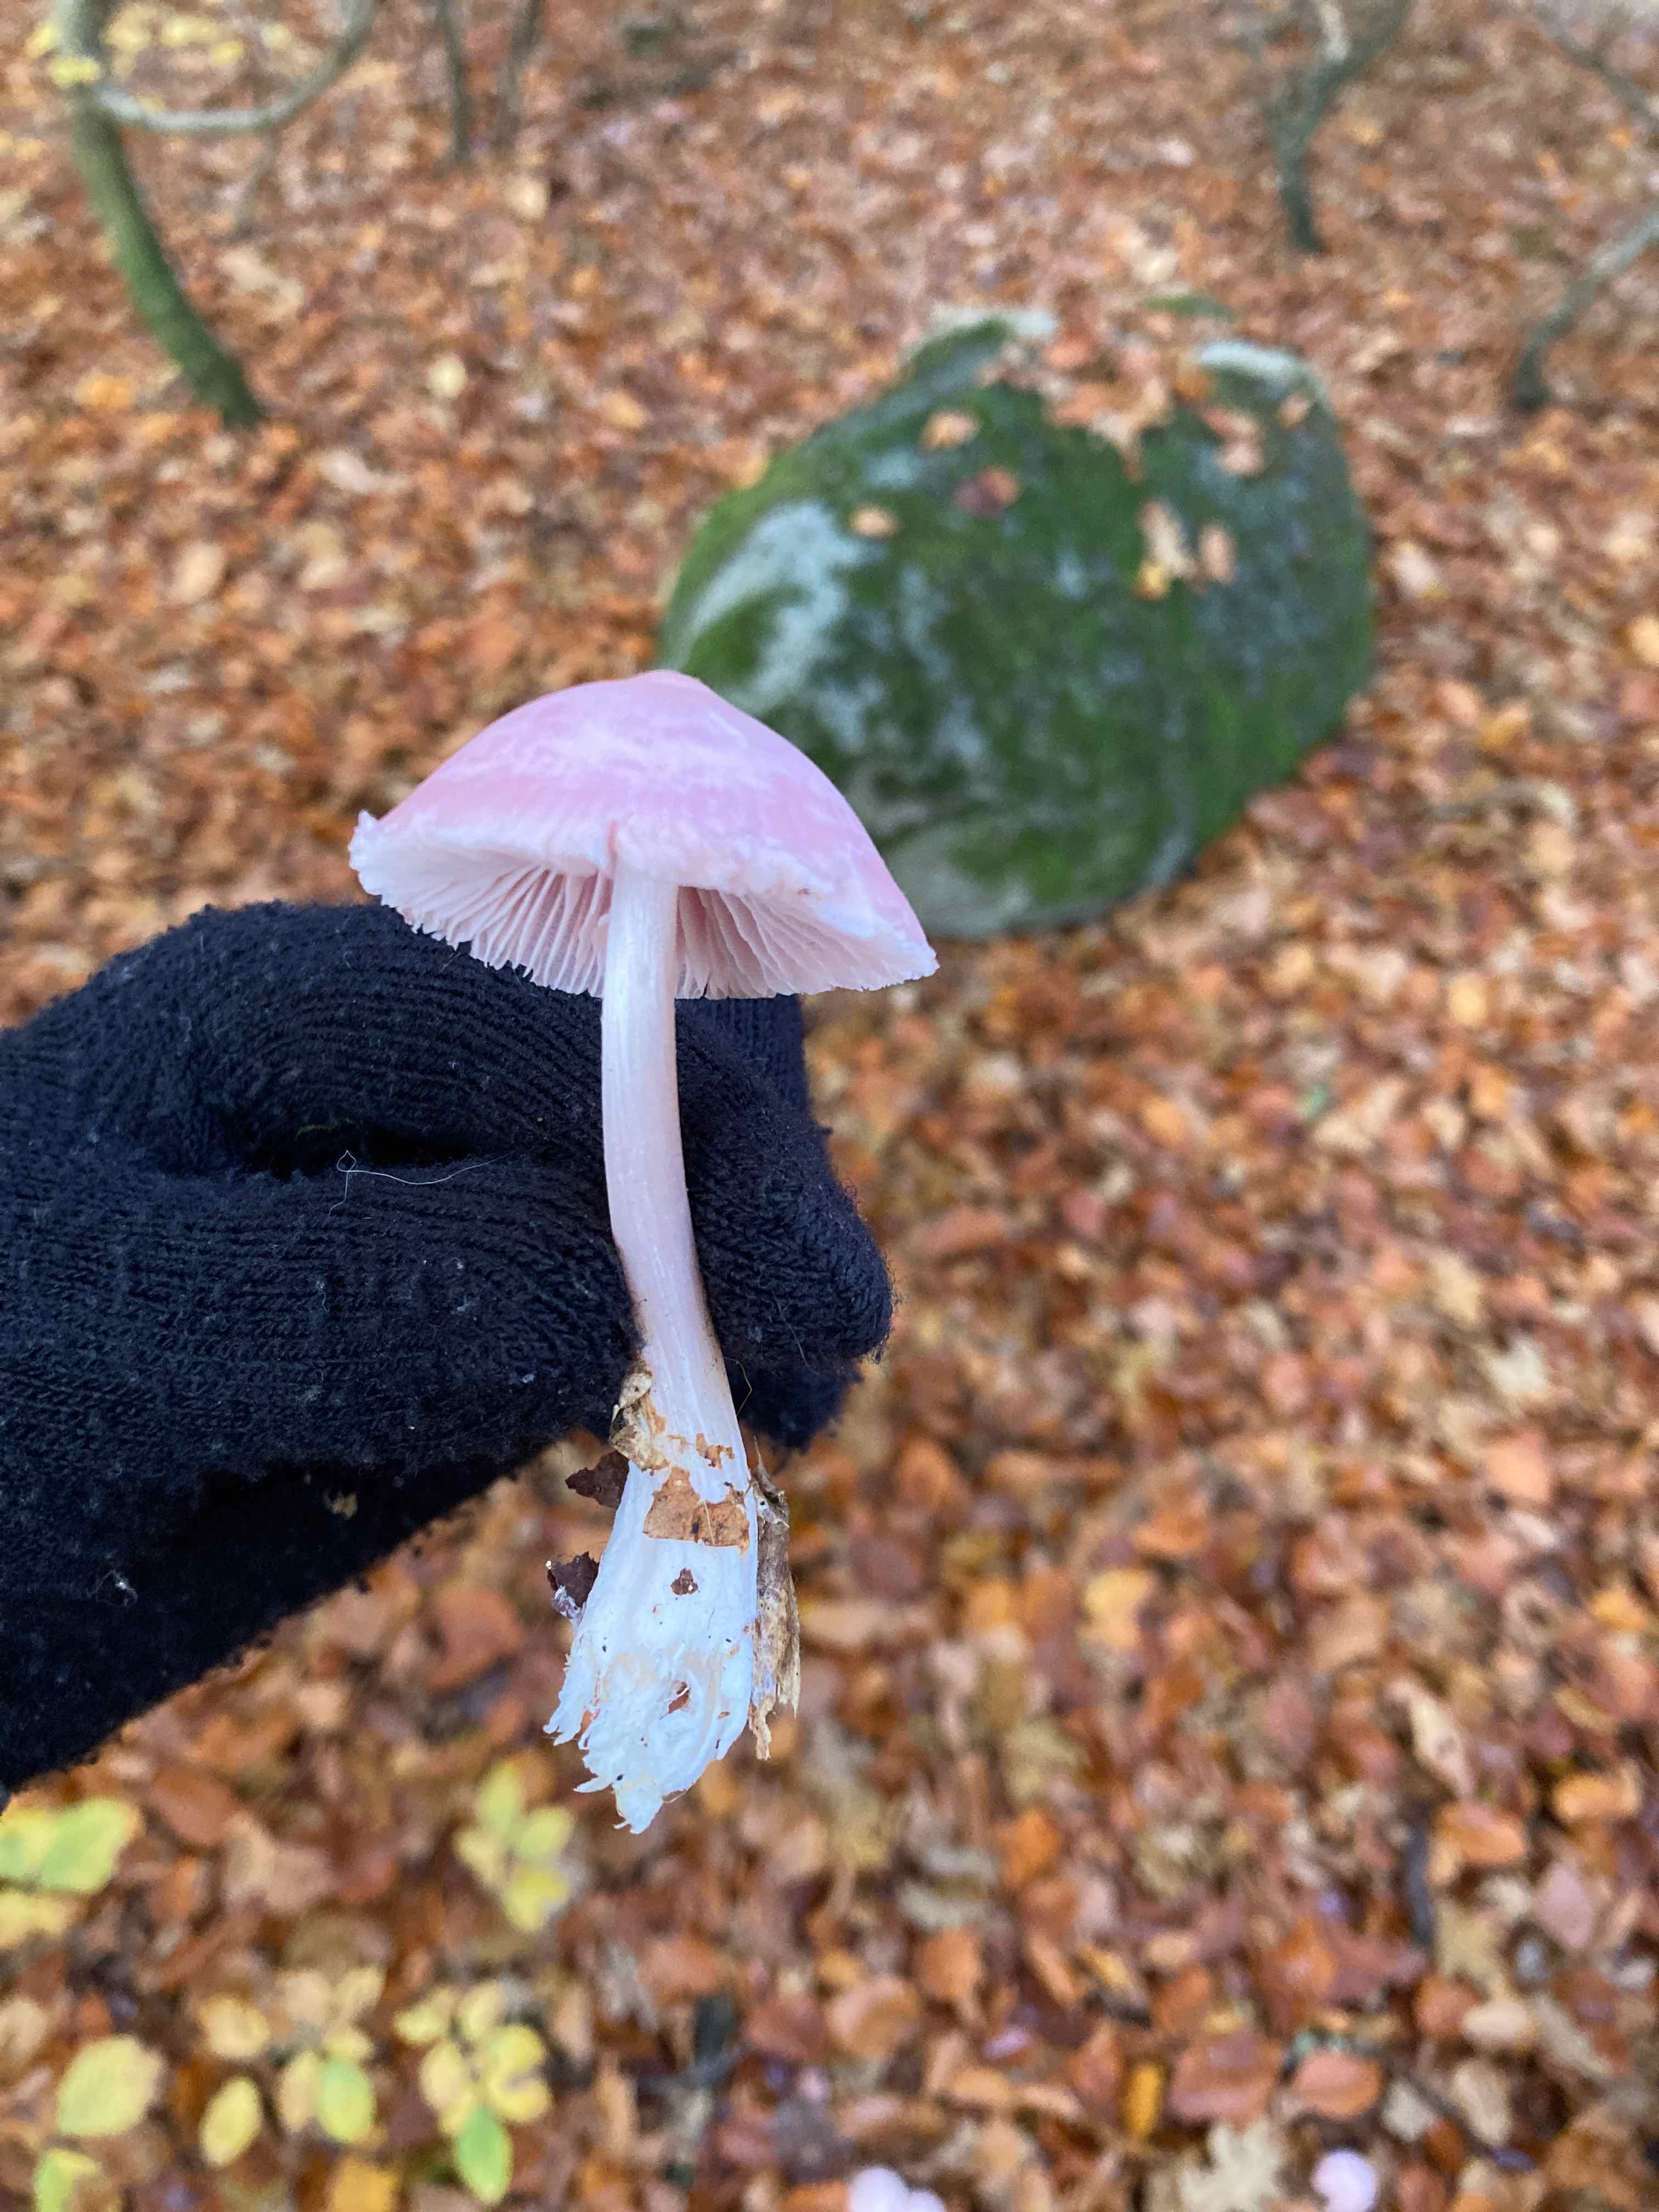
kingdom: Fungi
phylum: Basidiomycota
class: Agaricomycetes
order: Agaricales
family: Mycenaceae
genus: Mycena
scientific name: Mycena rosea
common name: rosa huesvamp
